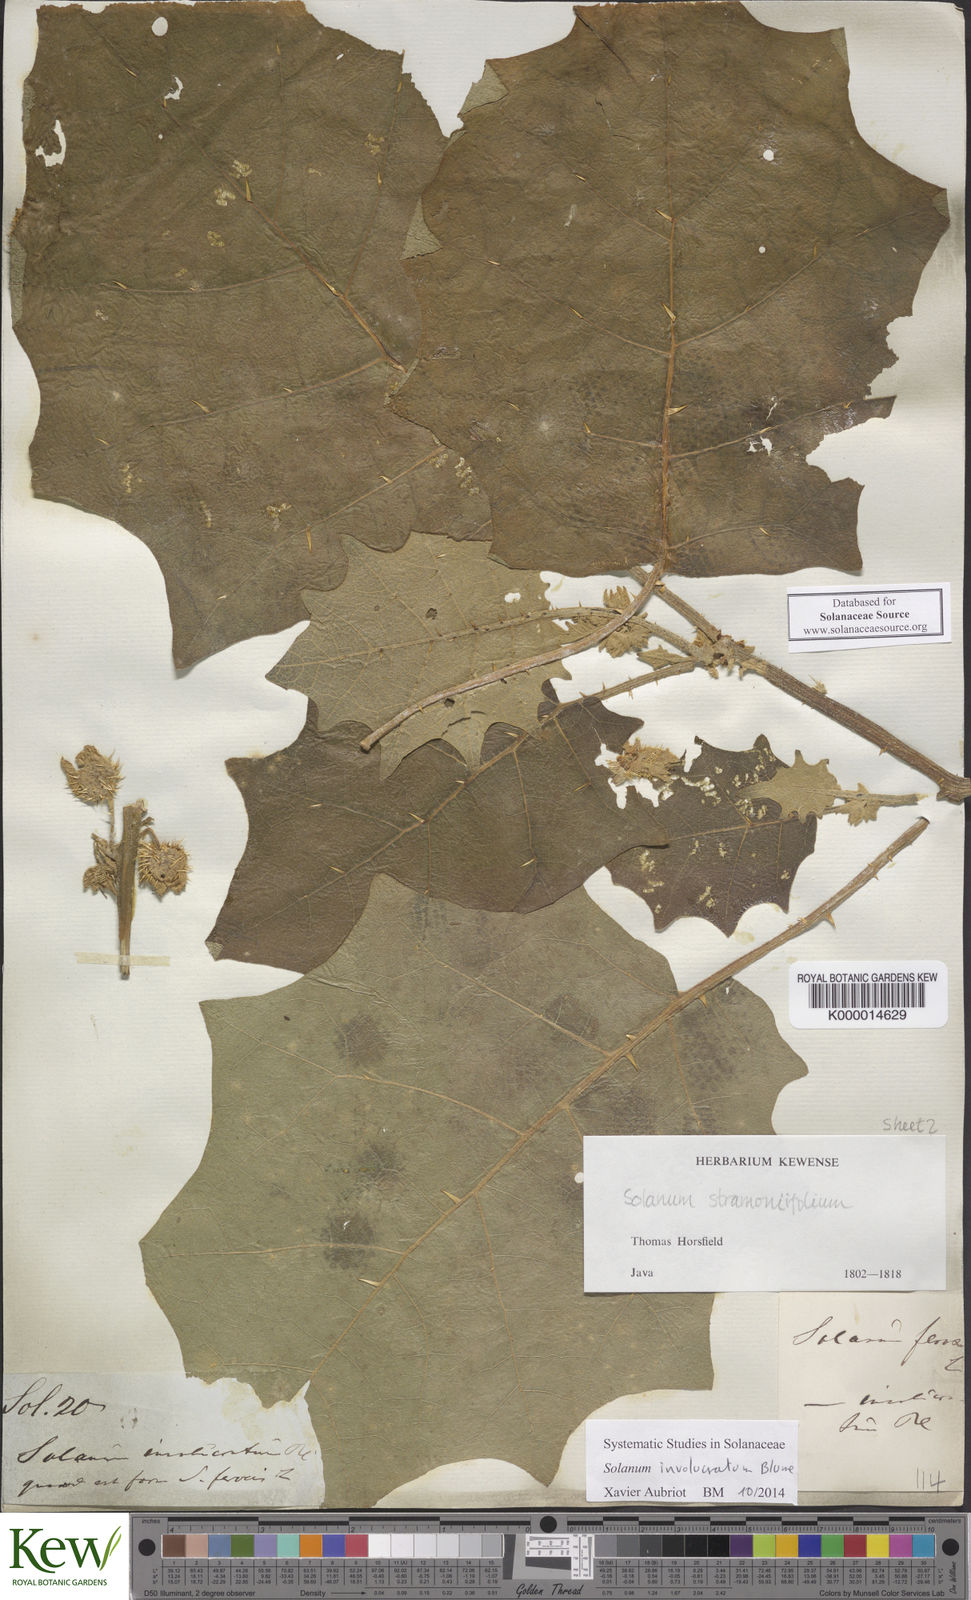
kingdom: Plantae
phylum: Tracheophyta
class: Magnoliopsida
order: Solanales
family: Solanaceae
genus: Solanum
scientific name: Solanum involucratum
